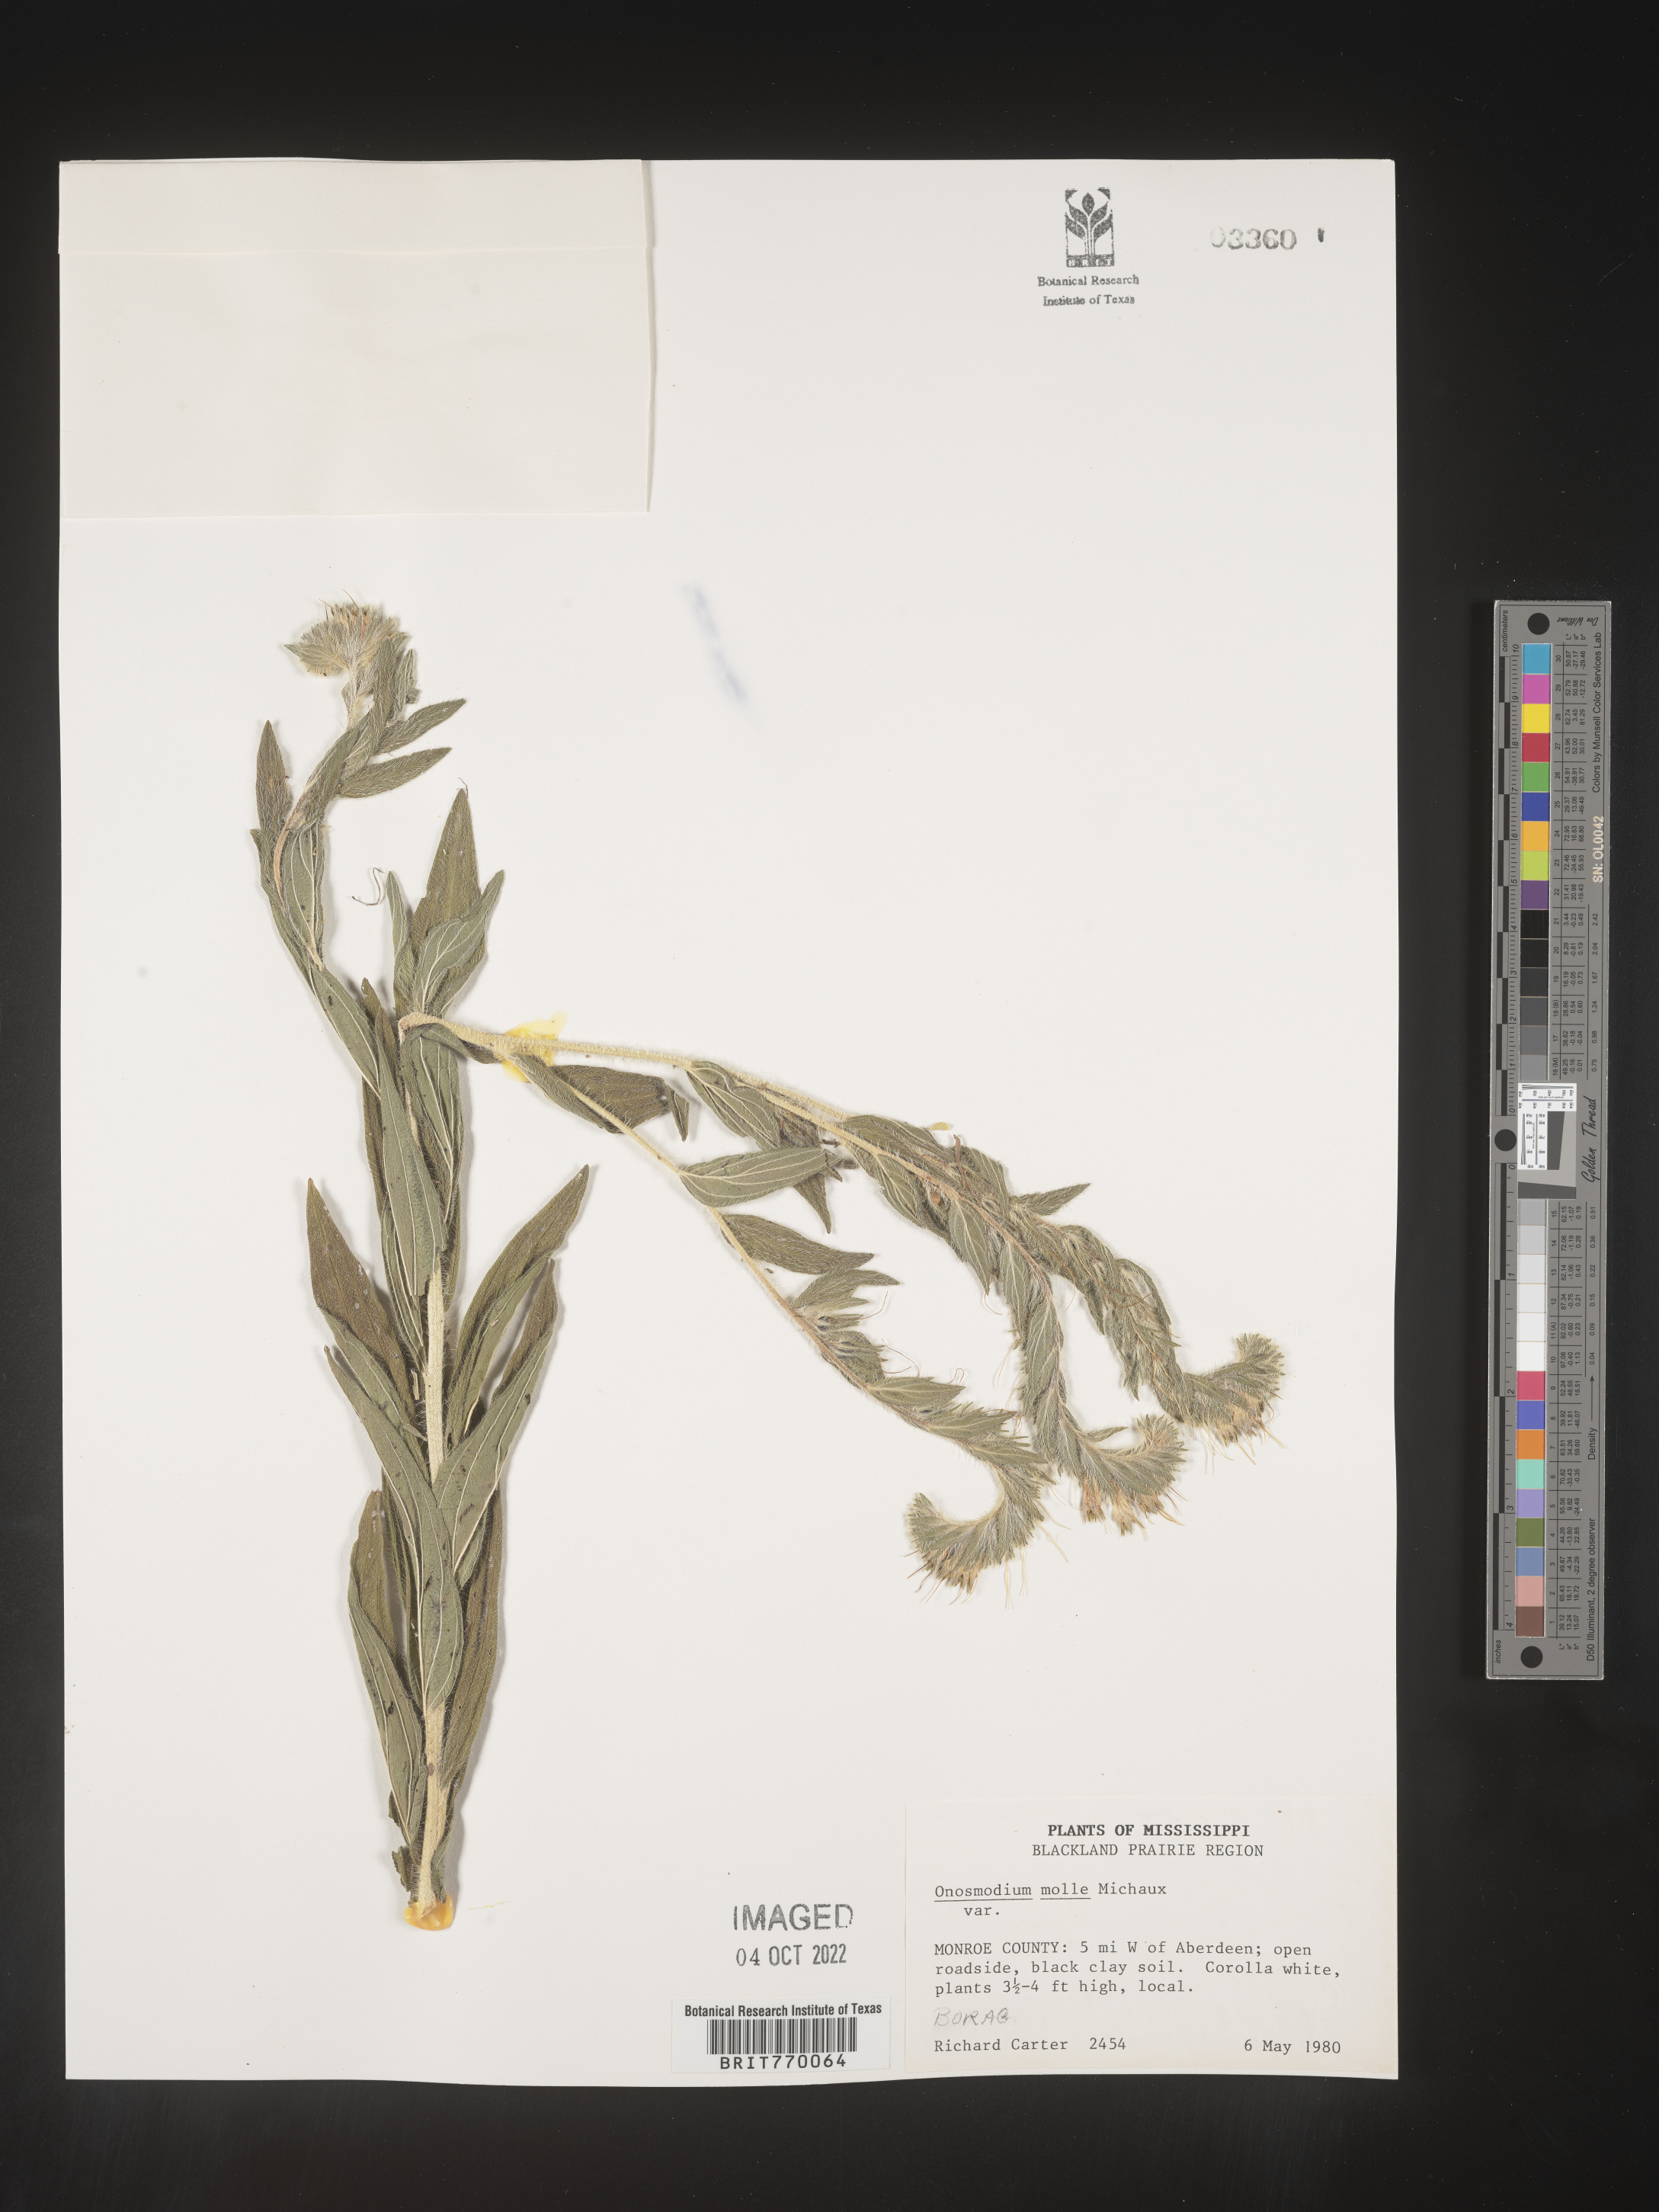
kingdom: Plantae
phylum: Tracheophyta
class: Magnoliopsida
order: Boraginales
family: Boraginaceae
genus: Lithospermum
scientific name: Lithospermum molle
